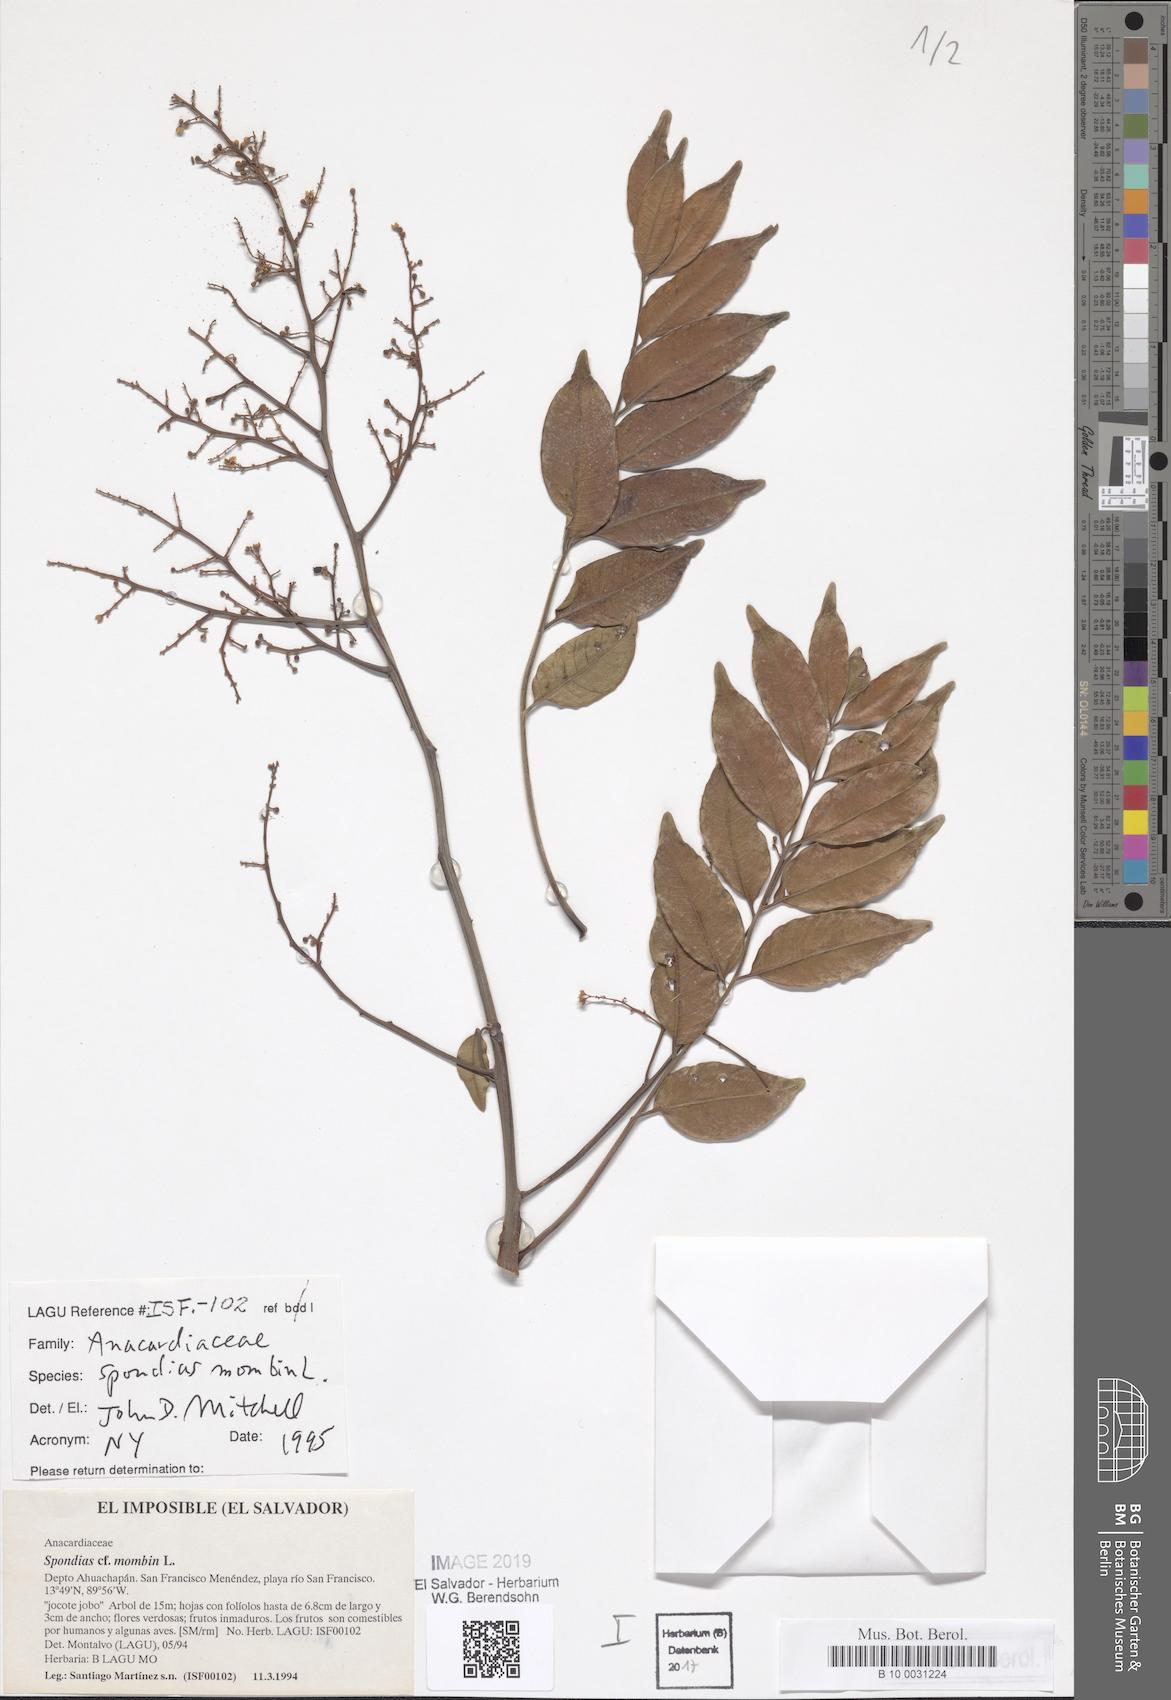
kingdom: Plantae
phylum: Tracheophyta
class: Magnoliopsida
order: Sapindales
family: Anacardiaceae
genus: Spondias
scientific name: Spondias mombin
